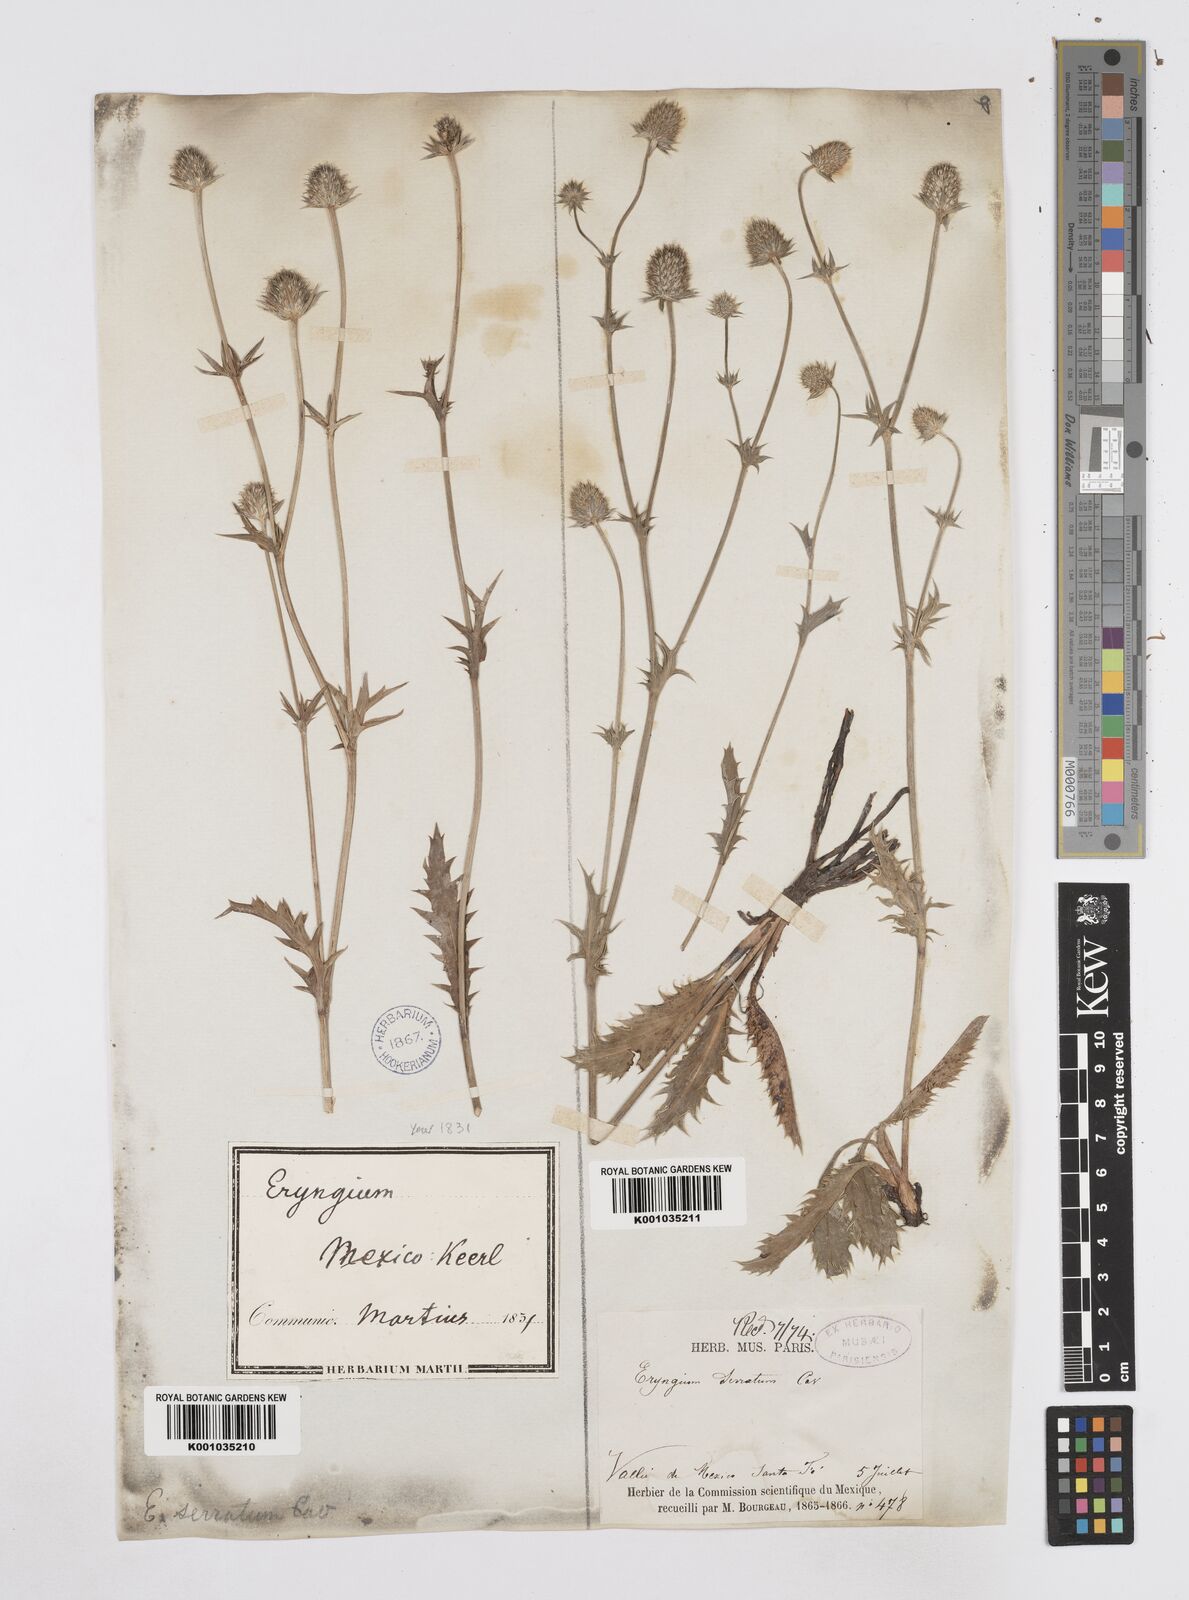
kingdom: Plantae
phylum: Tracheophyta
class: Magnoliopsida
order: Apiales
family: Apiaceae
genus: Eryngium
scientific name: Eryngium serratum
